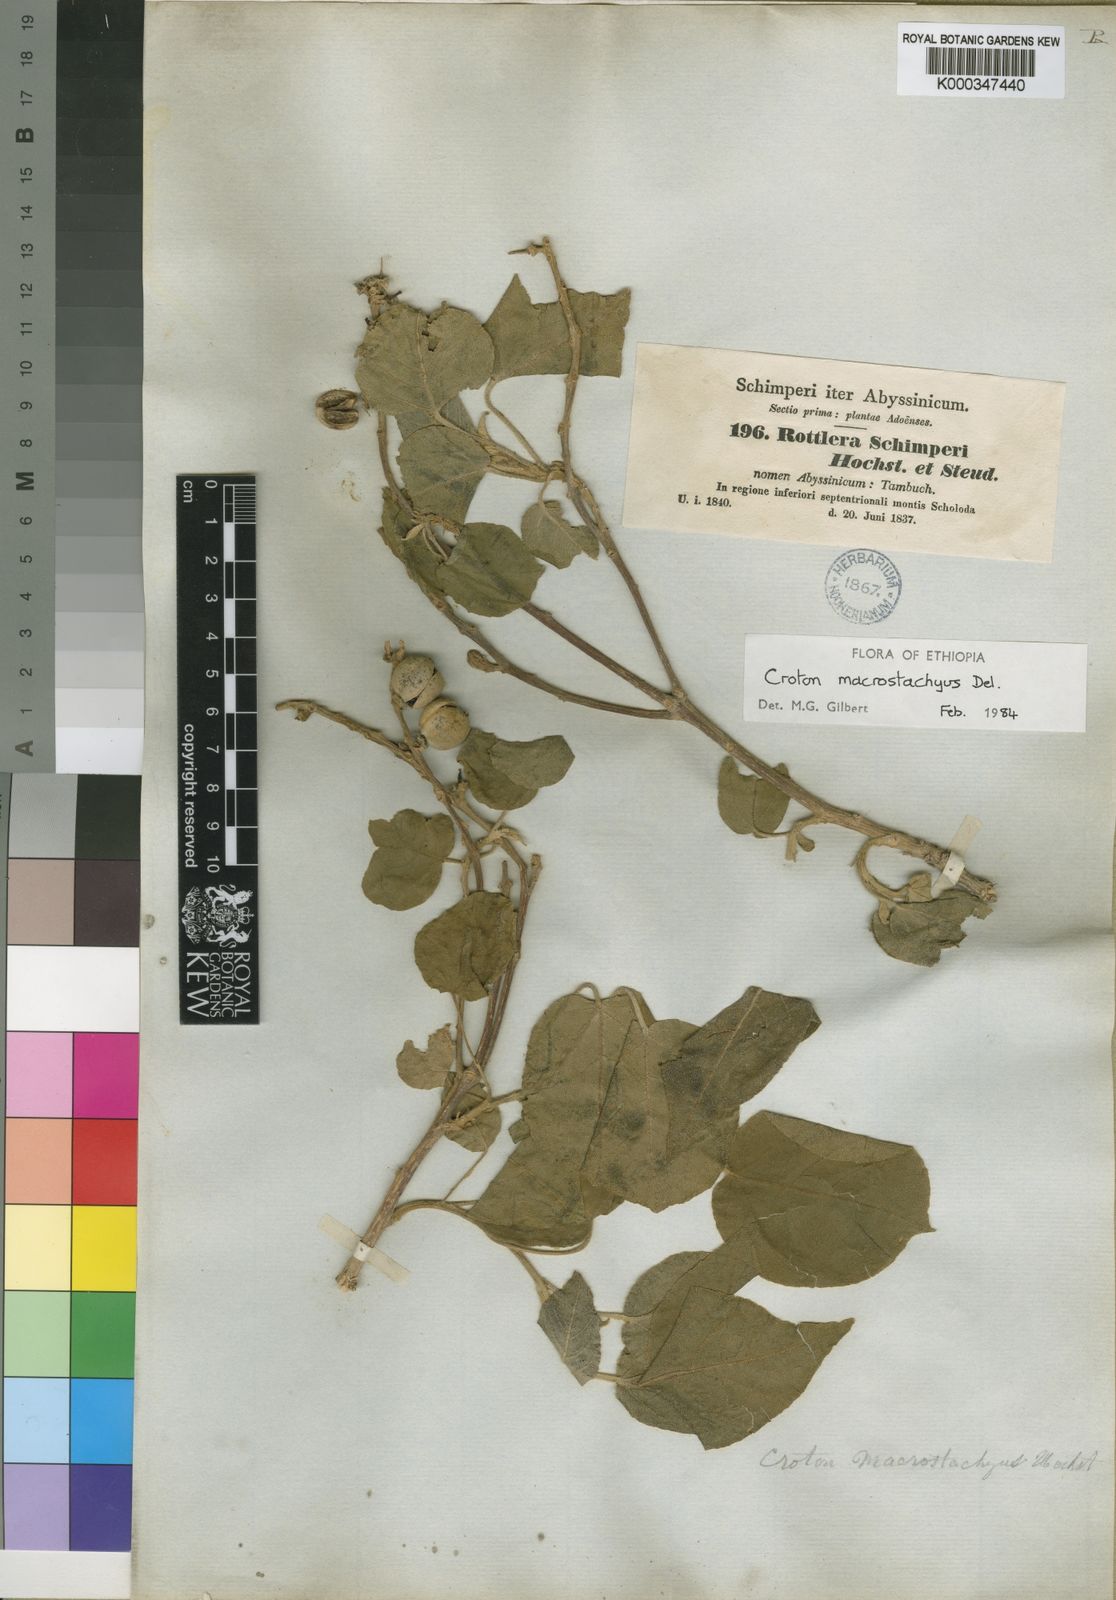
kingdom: Plantae
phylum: Tracheophyta
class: Magnoliopsida
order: Malpighiales
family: Euphorbiaceae
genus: Croton
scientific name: Croton macrostachyus
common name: Mutundu
